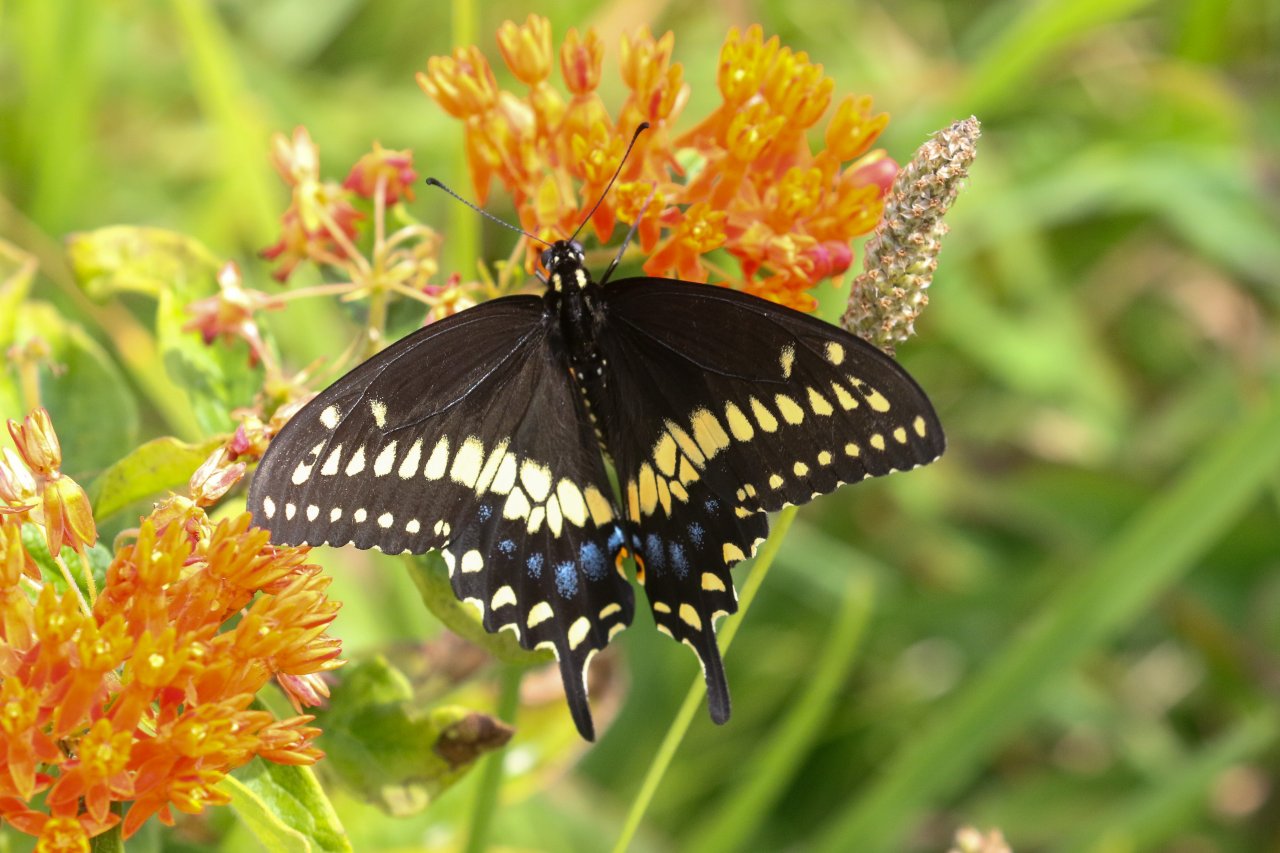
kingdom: Animalia
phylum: Arthropoda
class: Insecta
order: Lepidoptera
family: Papilionidae
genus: Papilio
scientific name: Papilio polyxenes
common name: Black Swallowtail
